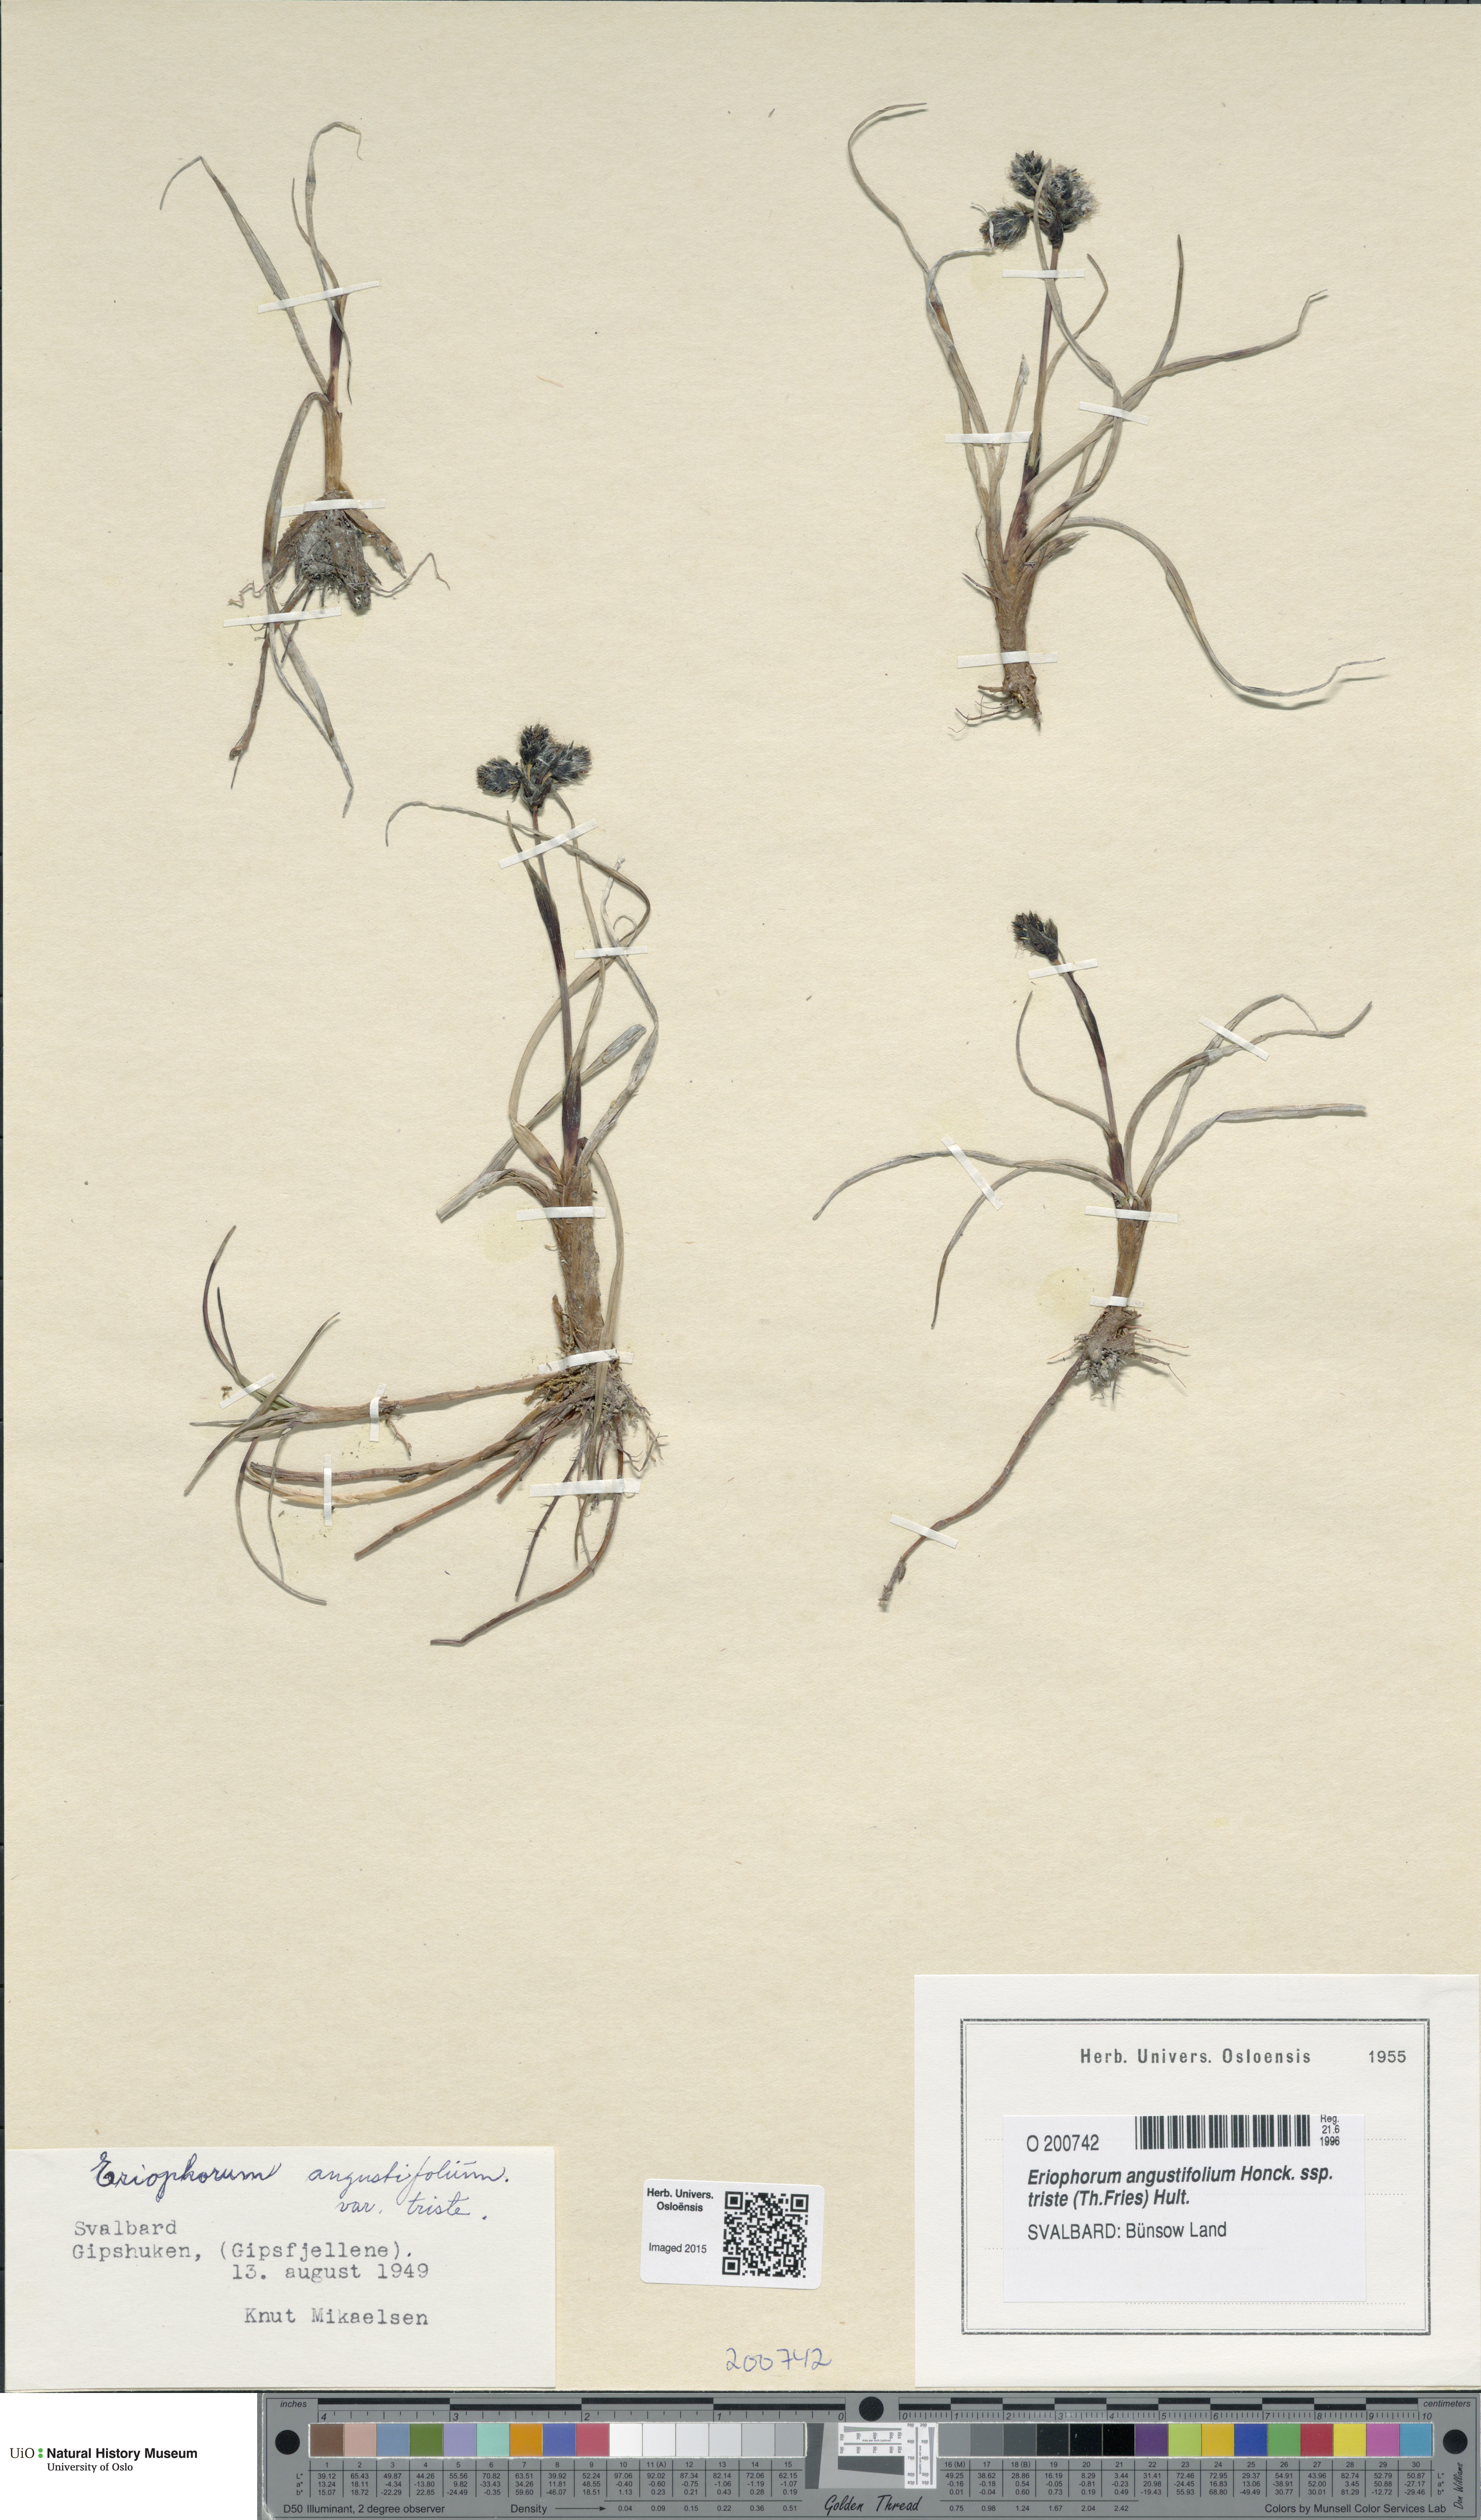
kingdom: Plantae
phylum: Tracheophyta
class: Liliopsida
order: Poales
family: Cyperaceae
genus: Eriophorum
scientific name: Eriophorum triste
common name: Tall cottongrass
